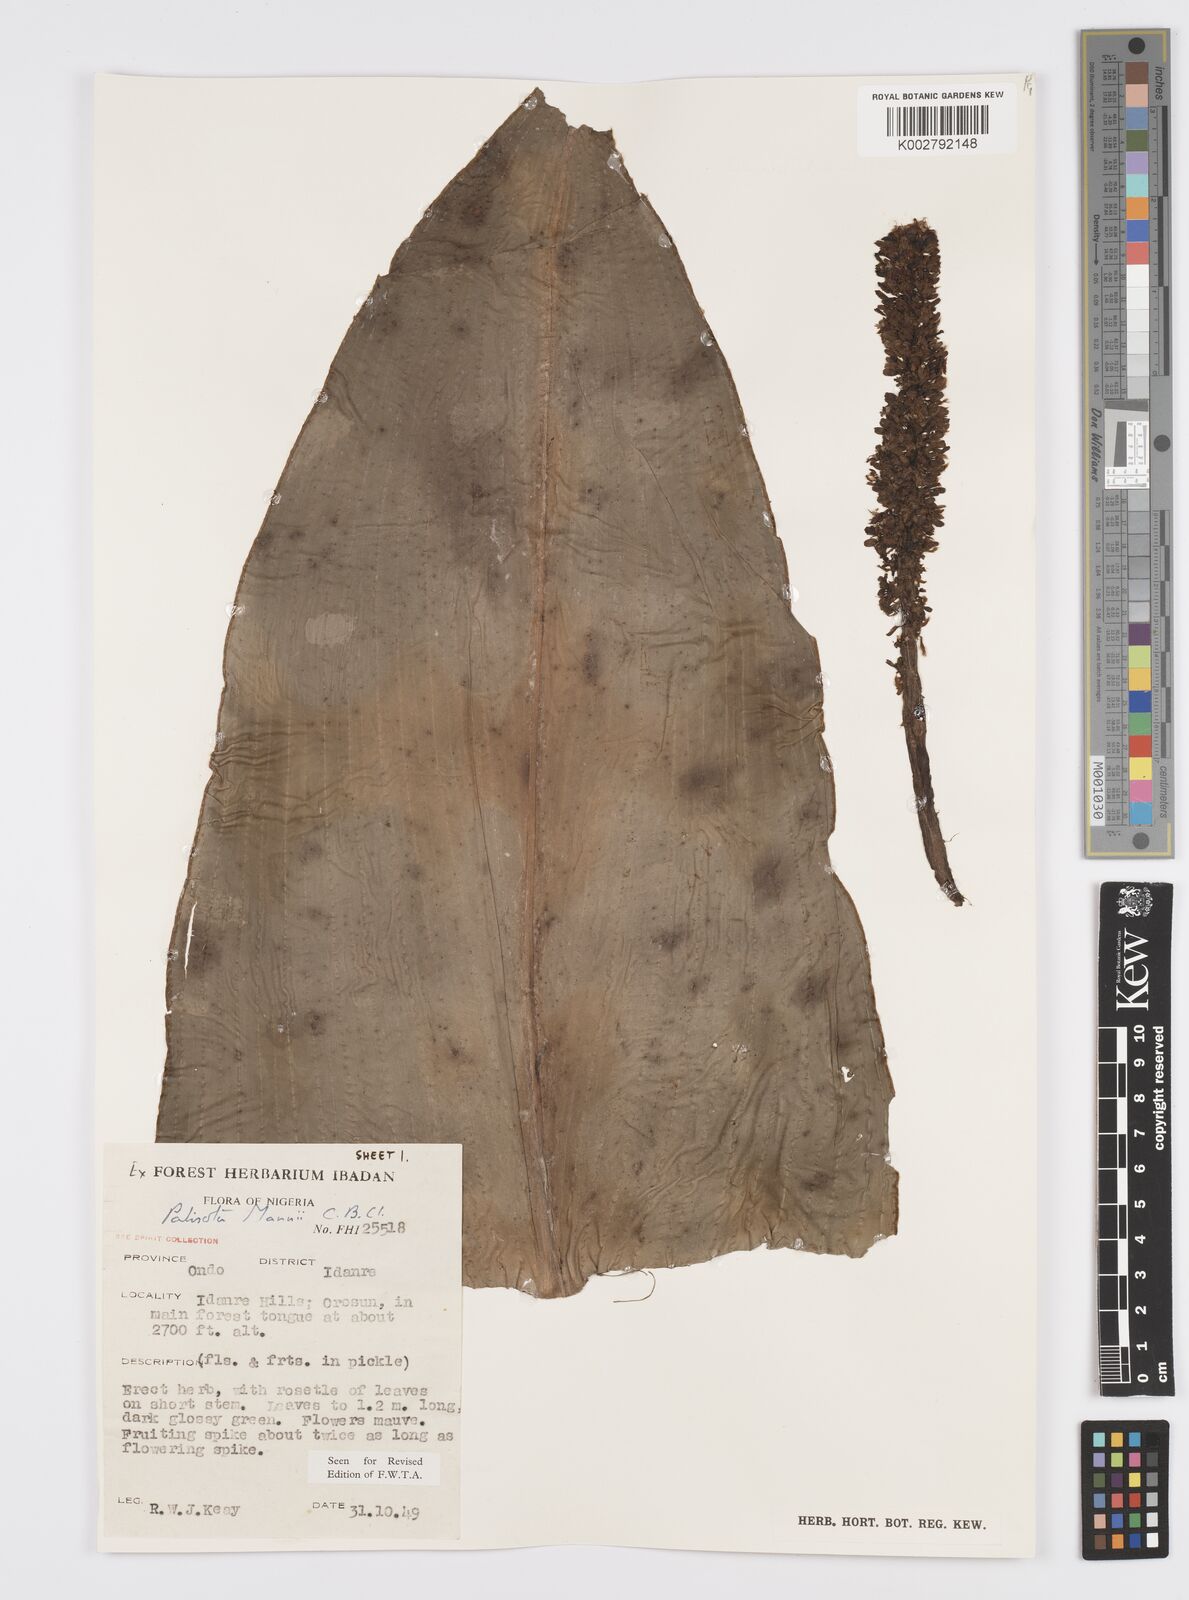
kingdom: Plantae
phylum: Tracheophyta
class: Liliopsida
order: Commelinales
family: Commelinaceae
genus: Palisota
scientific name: Palisota mannii
